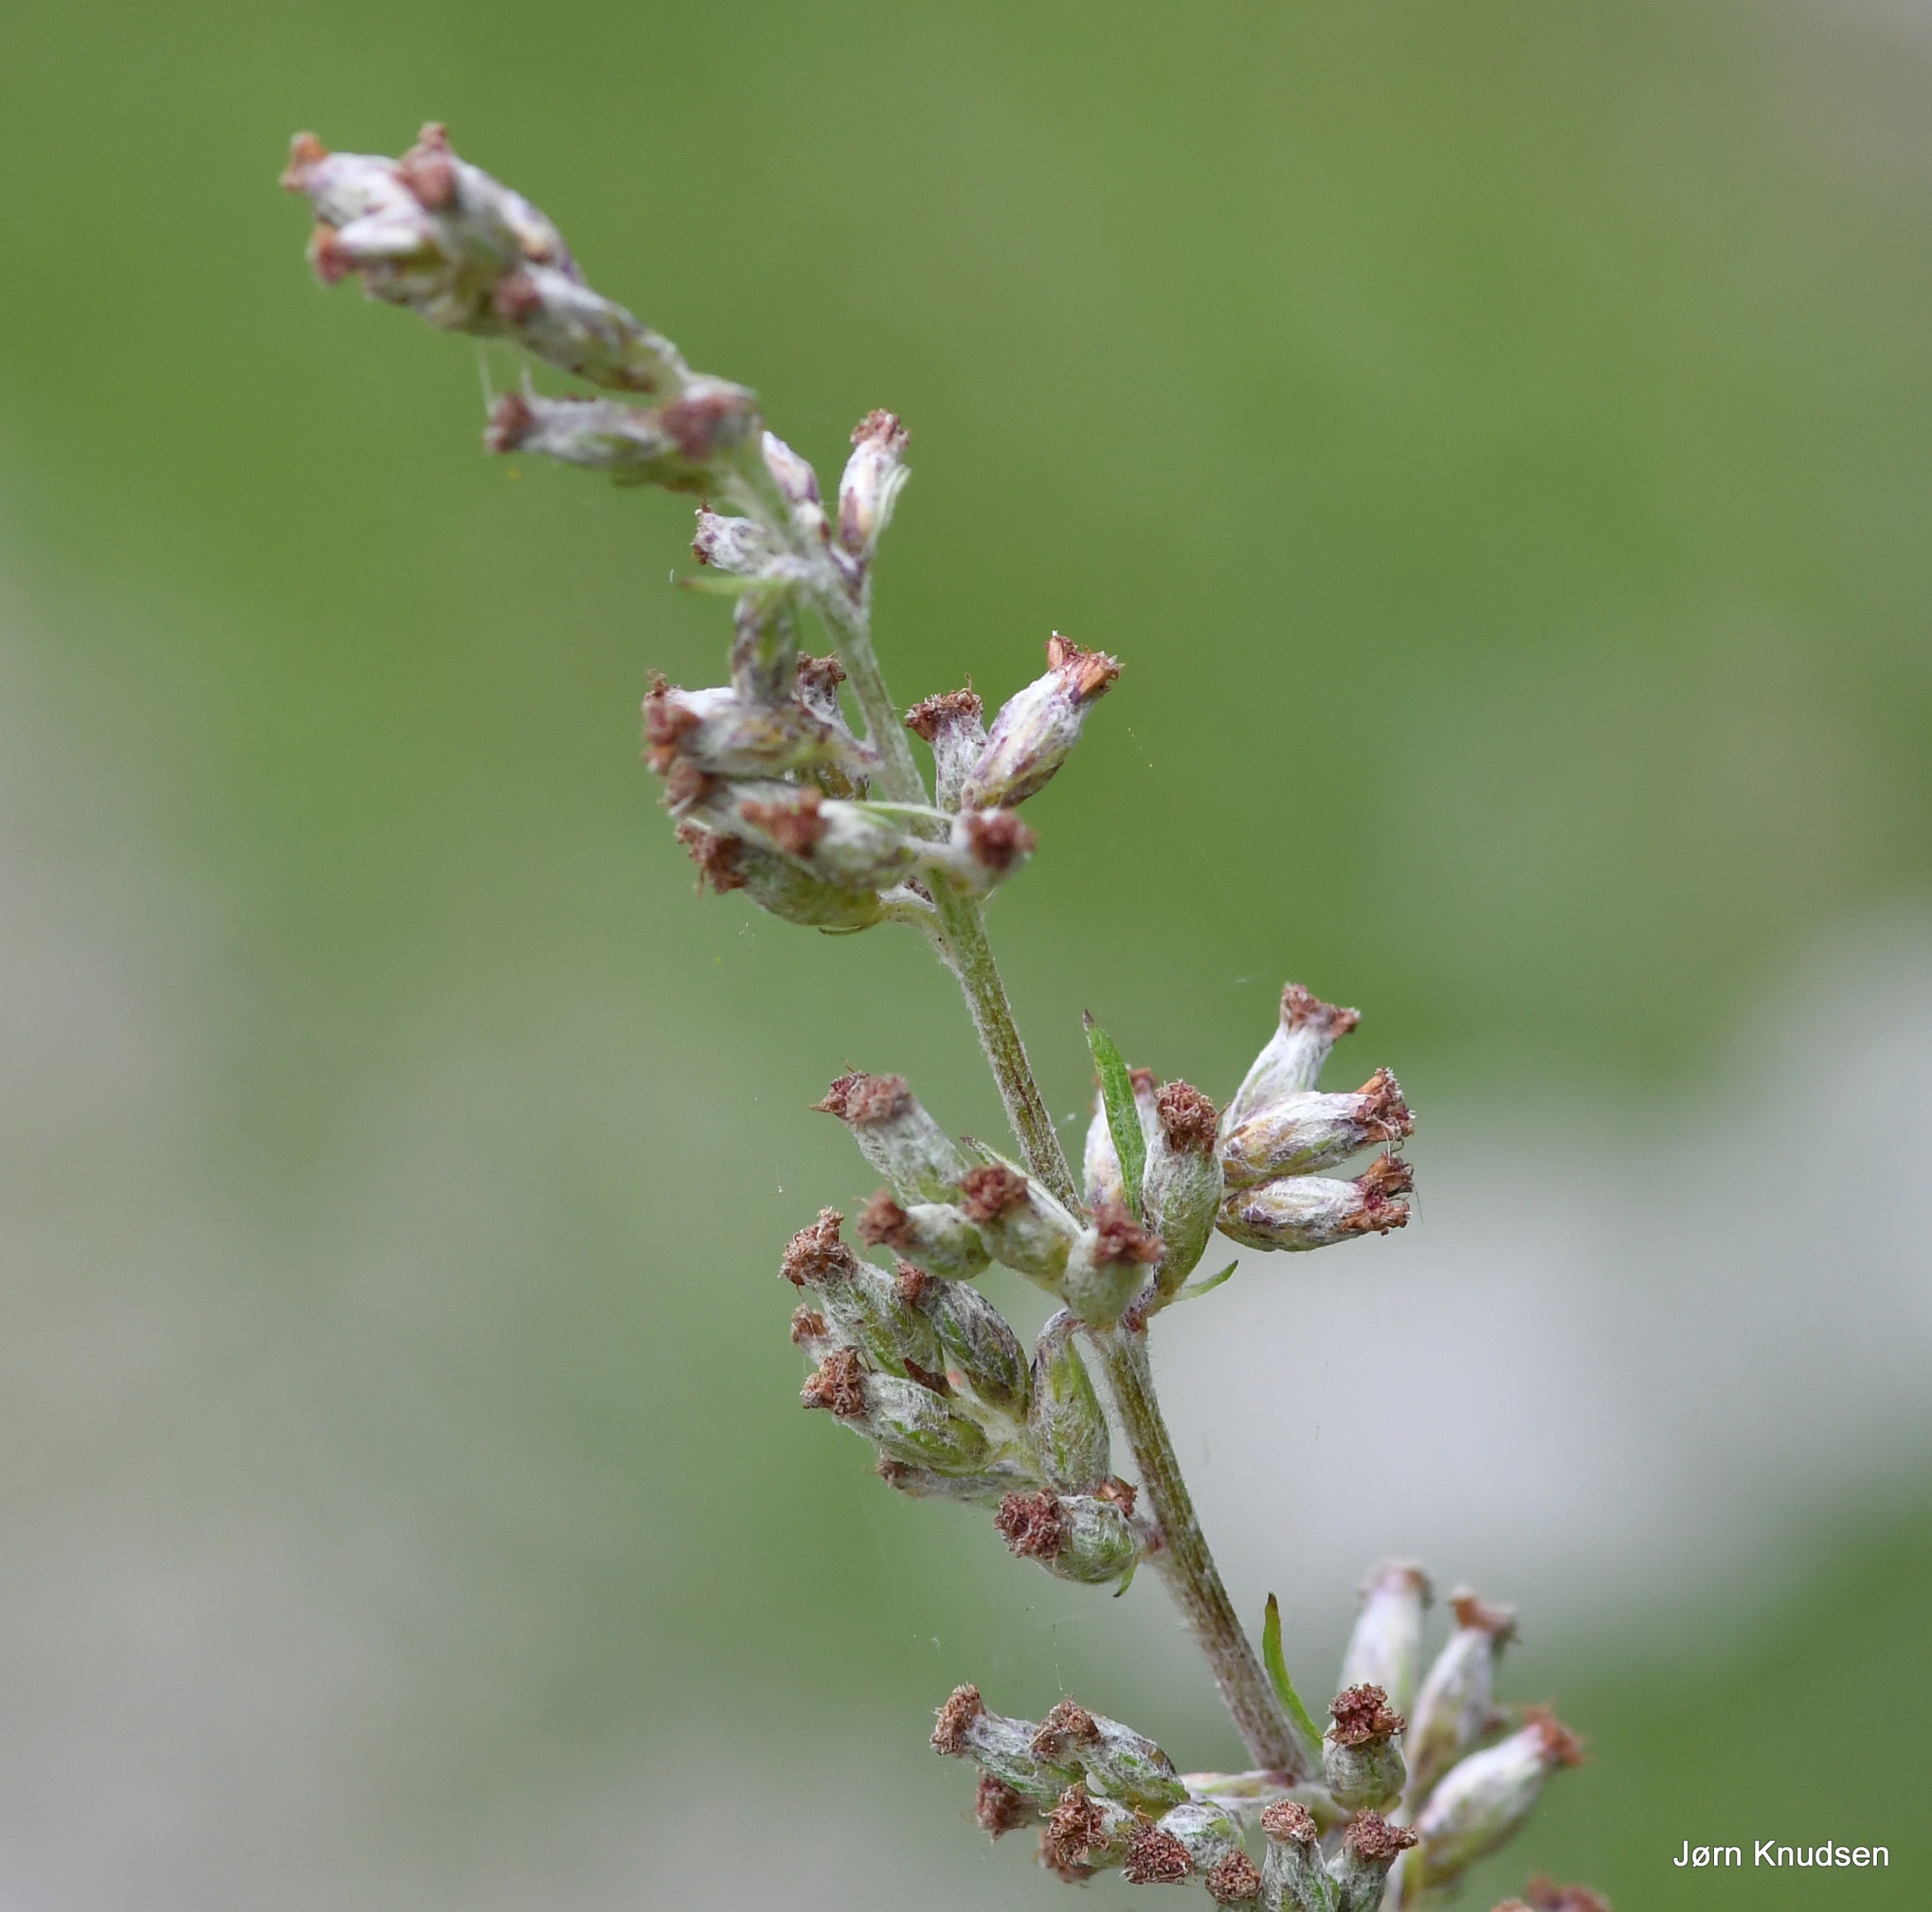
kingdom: Plantae
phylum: Tracheophyta
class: Magnoliopsida
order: Asterales
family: Asteraceae
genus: Artemisia
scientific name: Artemisia
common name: Bynkeslægten
